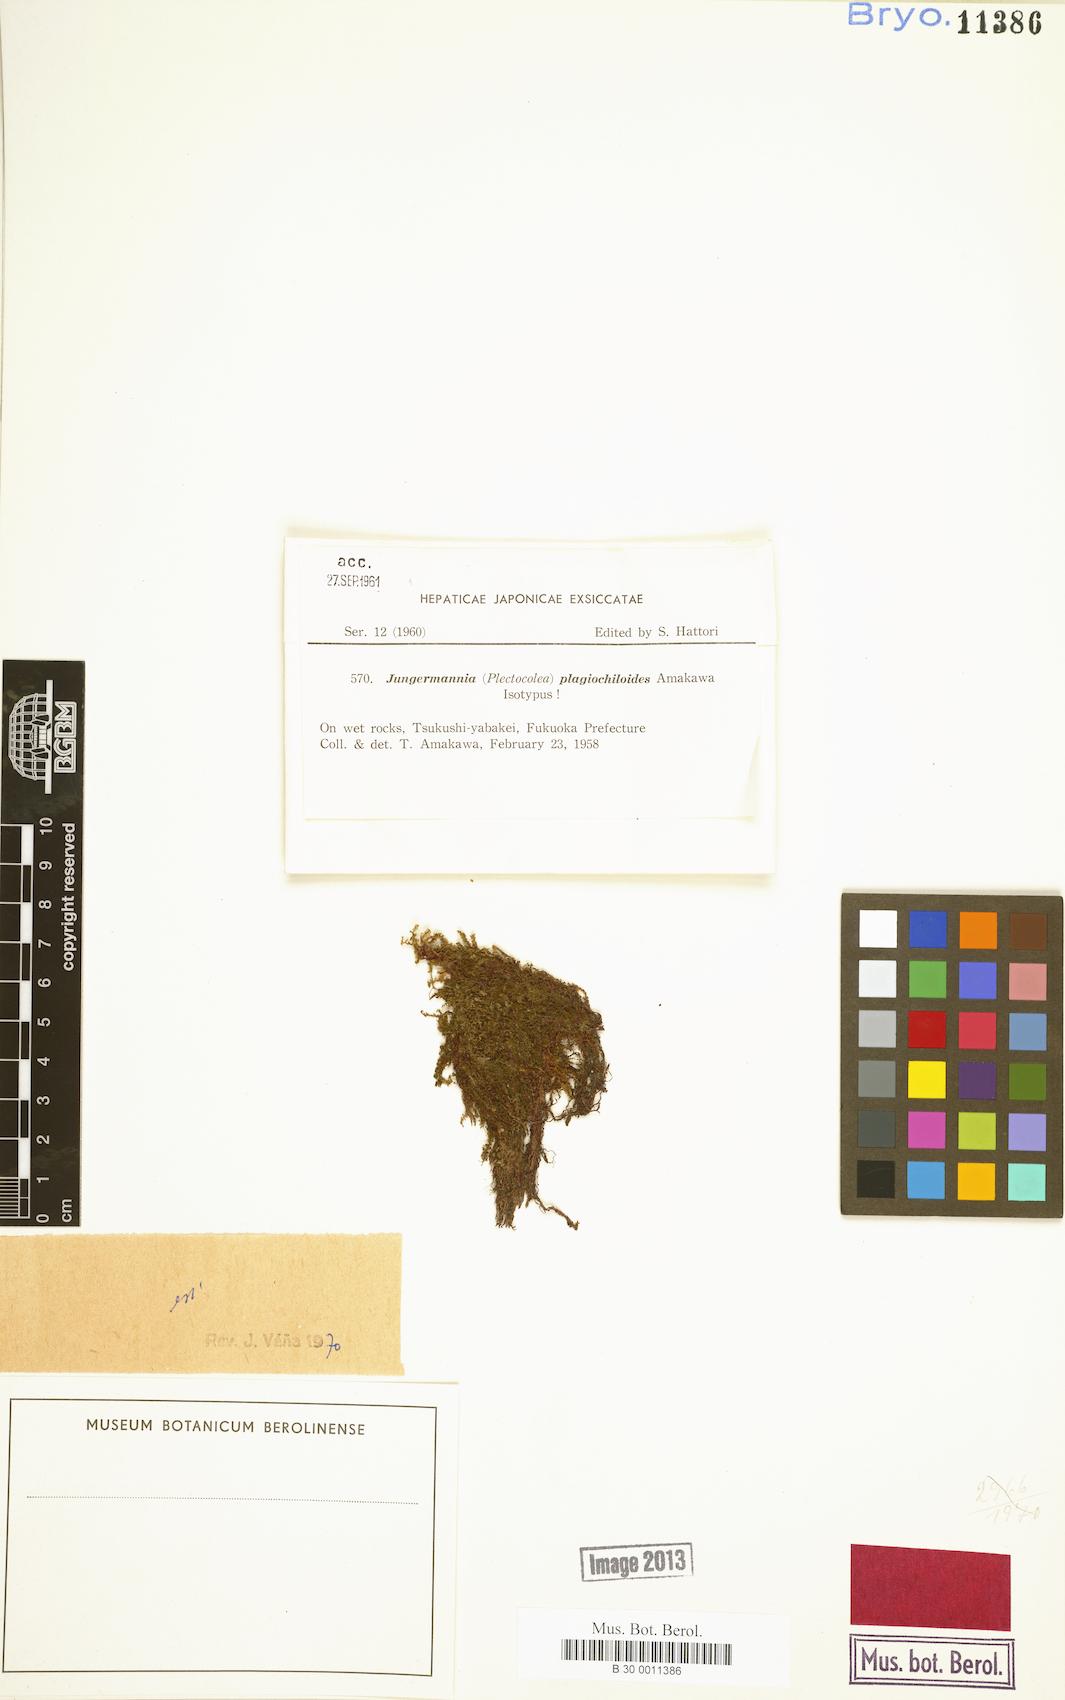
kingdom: Plantae
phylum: Marchantiophyta
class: Jungermanniopsida
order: Jungermanniales
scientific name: Jungermanniales
